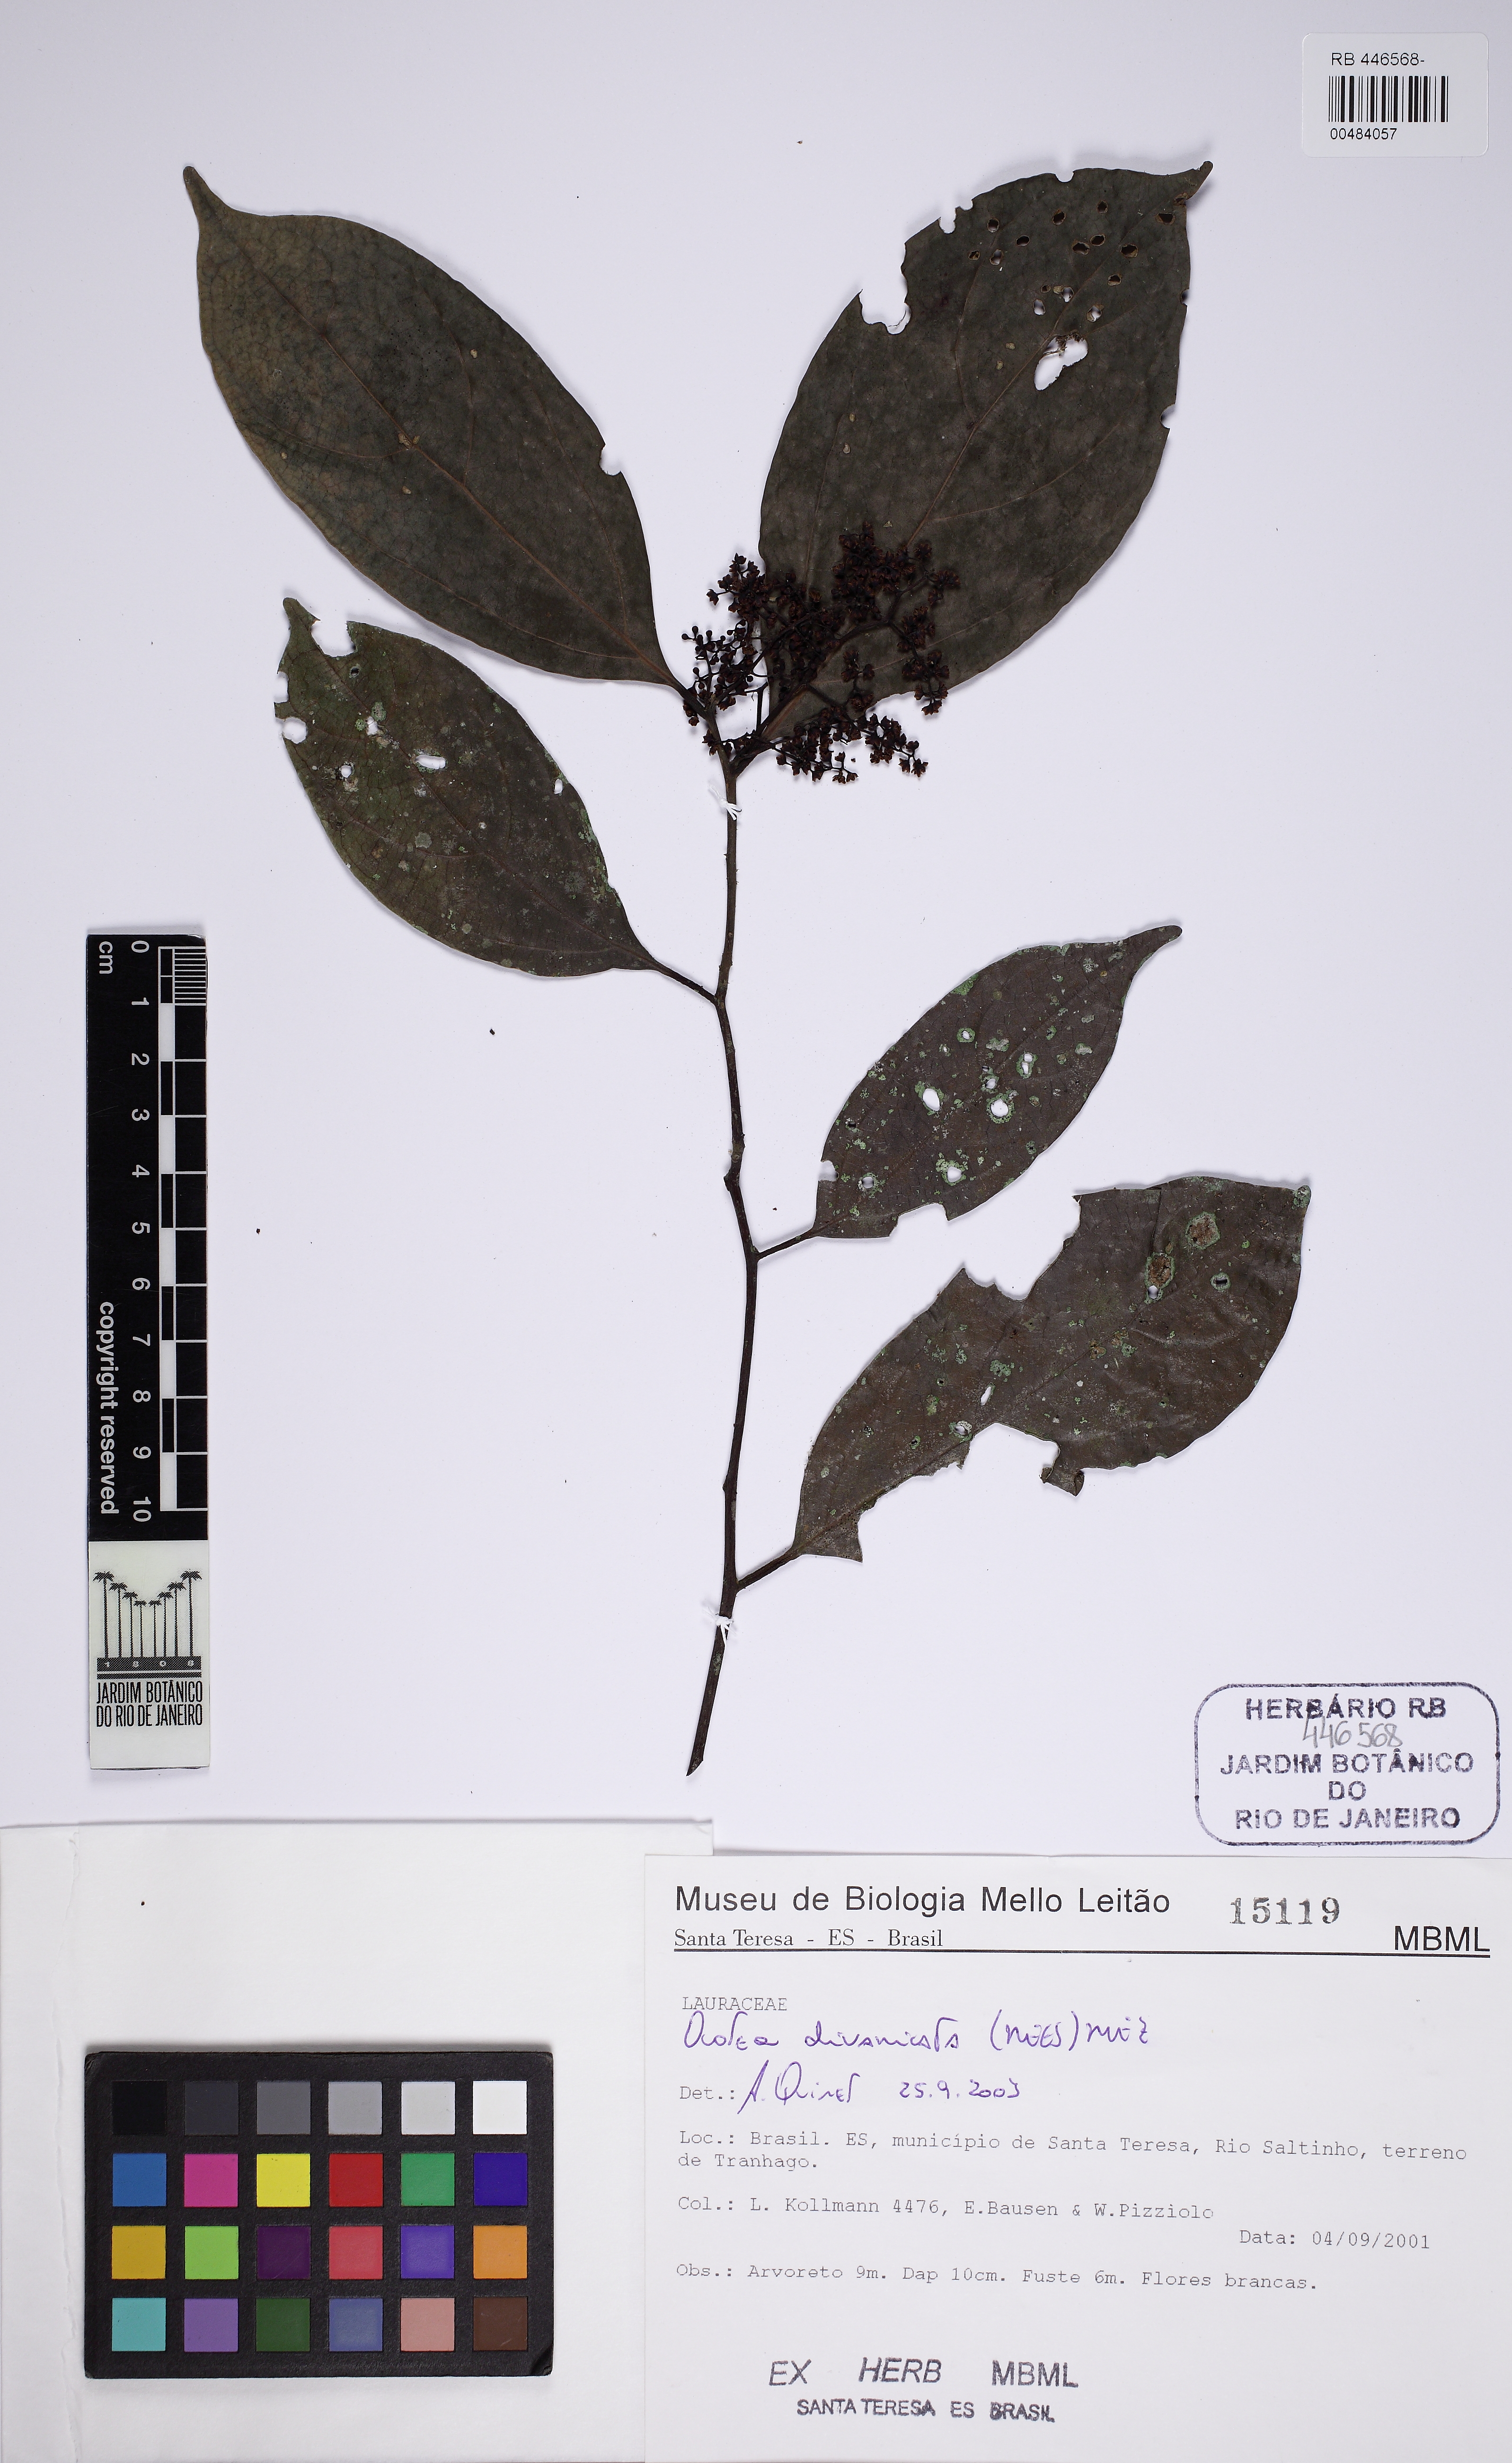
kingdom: Plantae
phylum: Tracheophyta
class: Magnoliopsida
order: Laurales
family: Lauraceae
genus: Ocotea
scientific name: Ocotea divaricata
